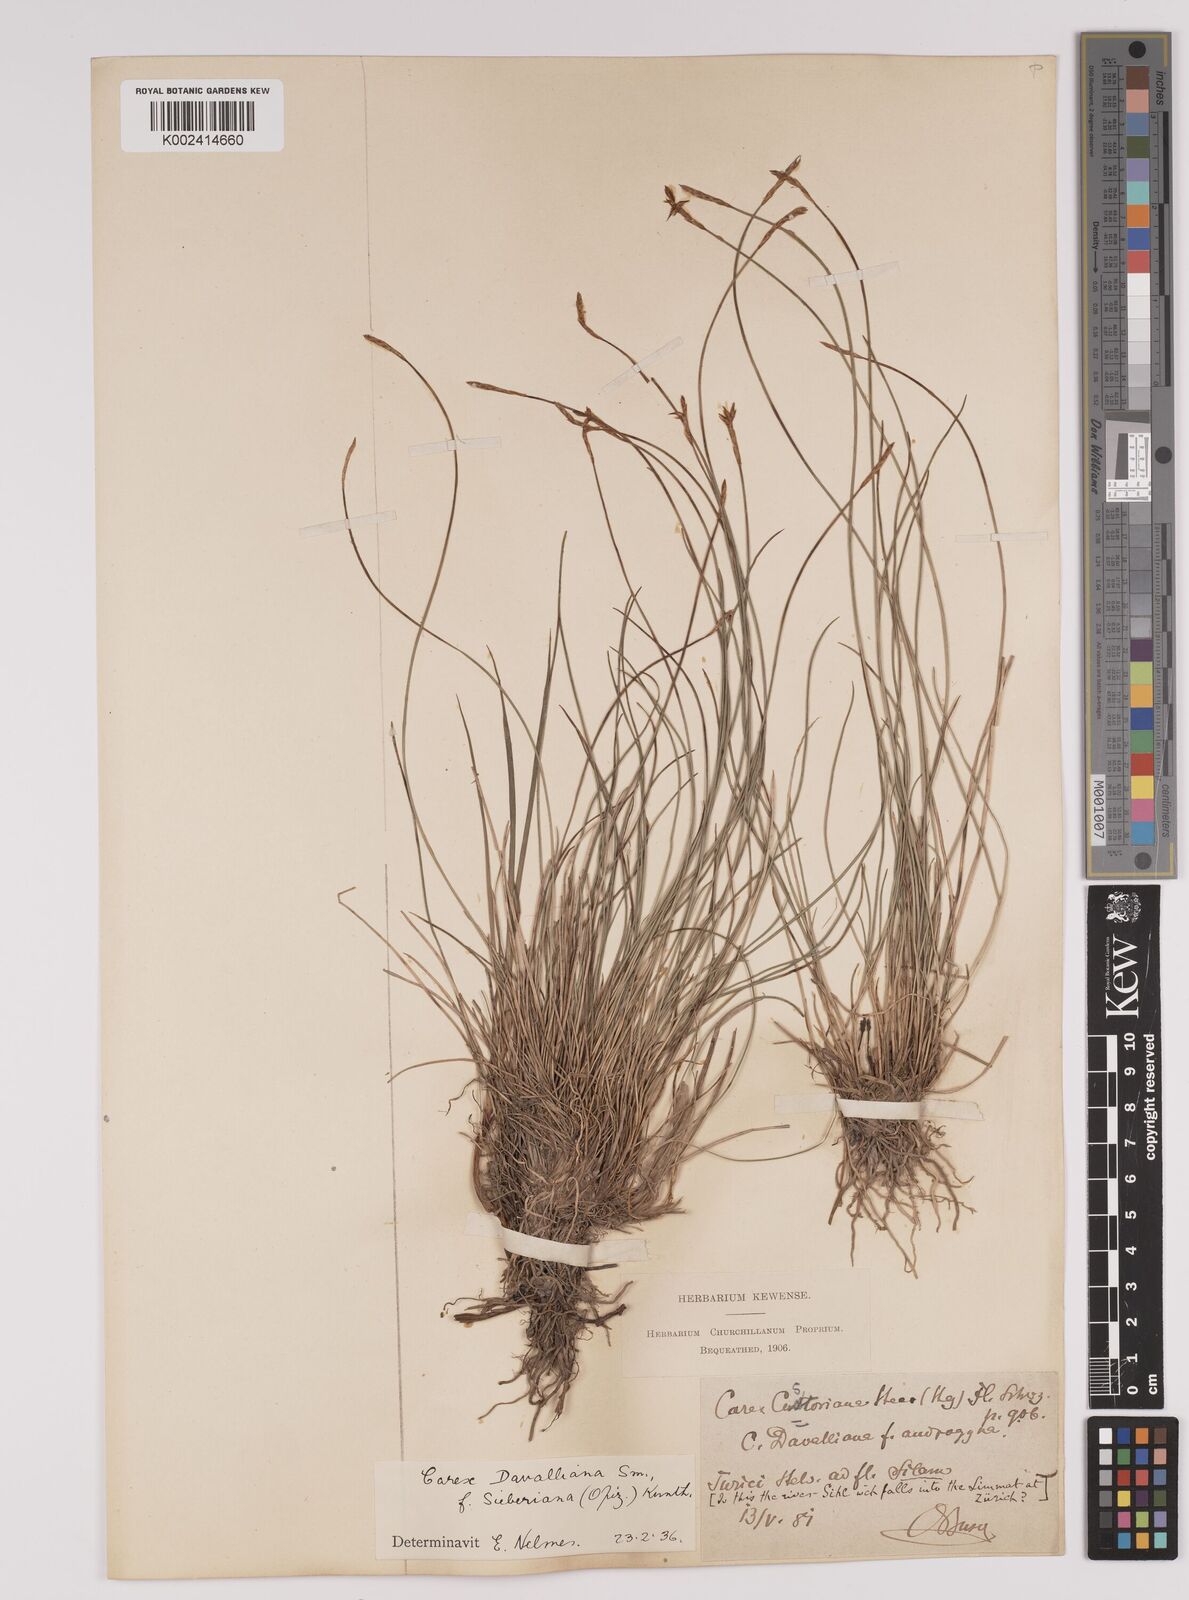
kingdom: Plantae
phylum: Tracheophyta
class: Liliopsida
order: Poales
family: Cyperaceae
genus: Carex
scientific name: Carex davalliana
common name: Davall's sedge
